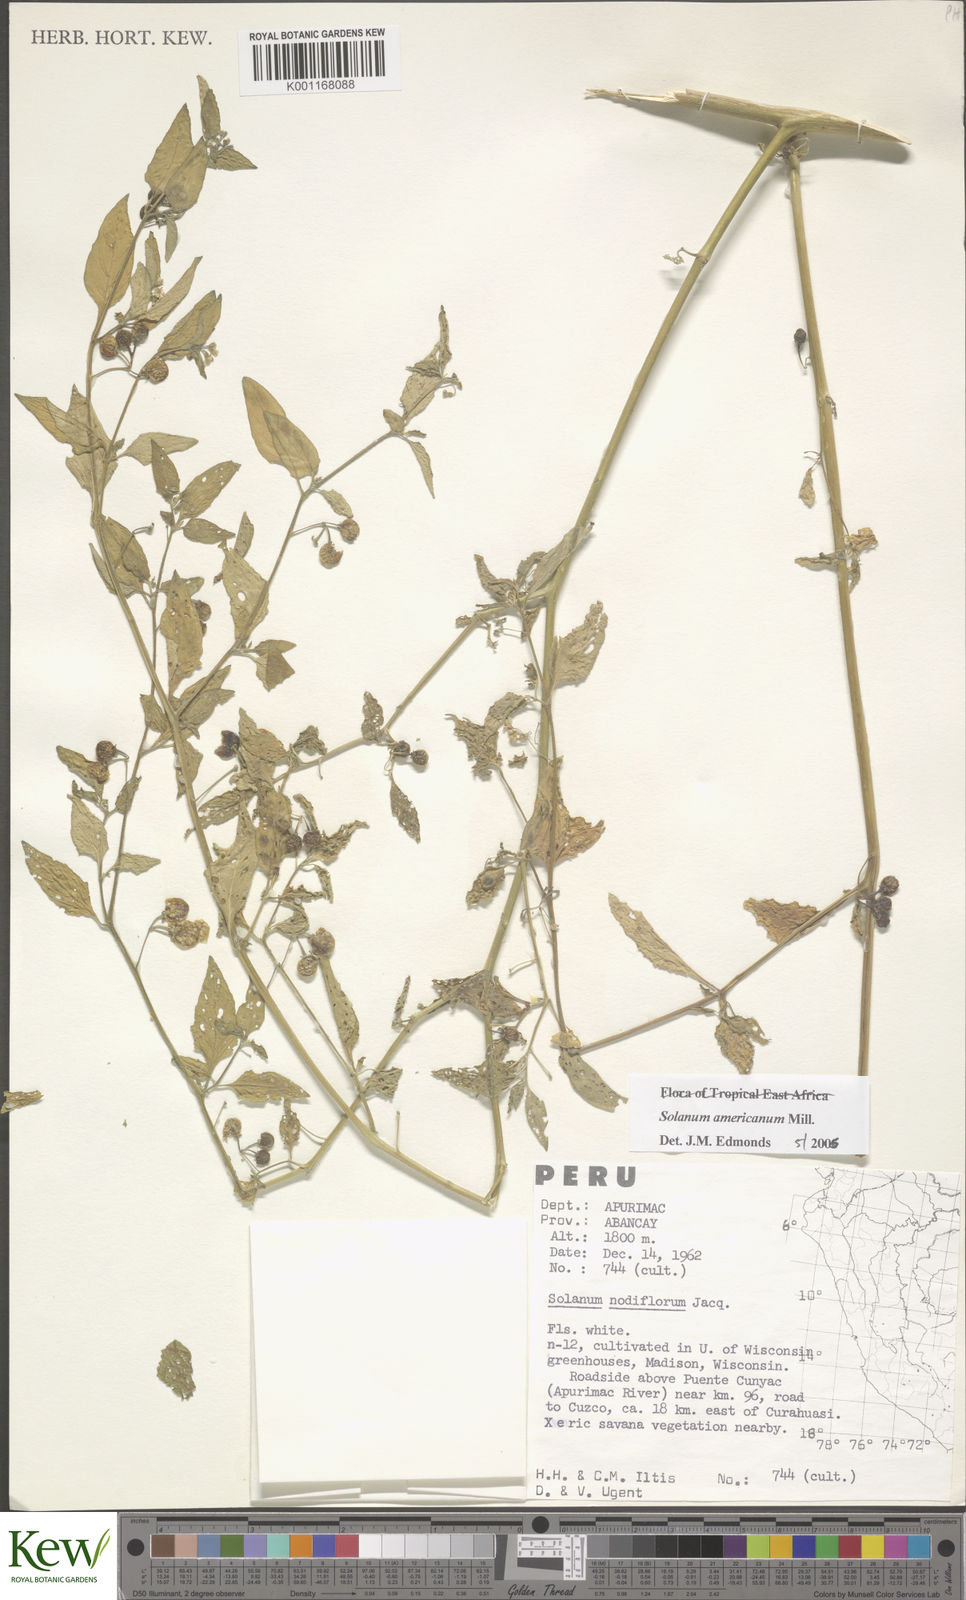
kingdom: Plantae
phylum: Tracheophyta
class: Magnoliopsida
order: Solanales
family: Solanaceae
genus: Solanum
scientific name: Solanum americanum
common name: American black nightshade
